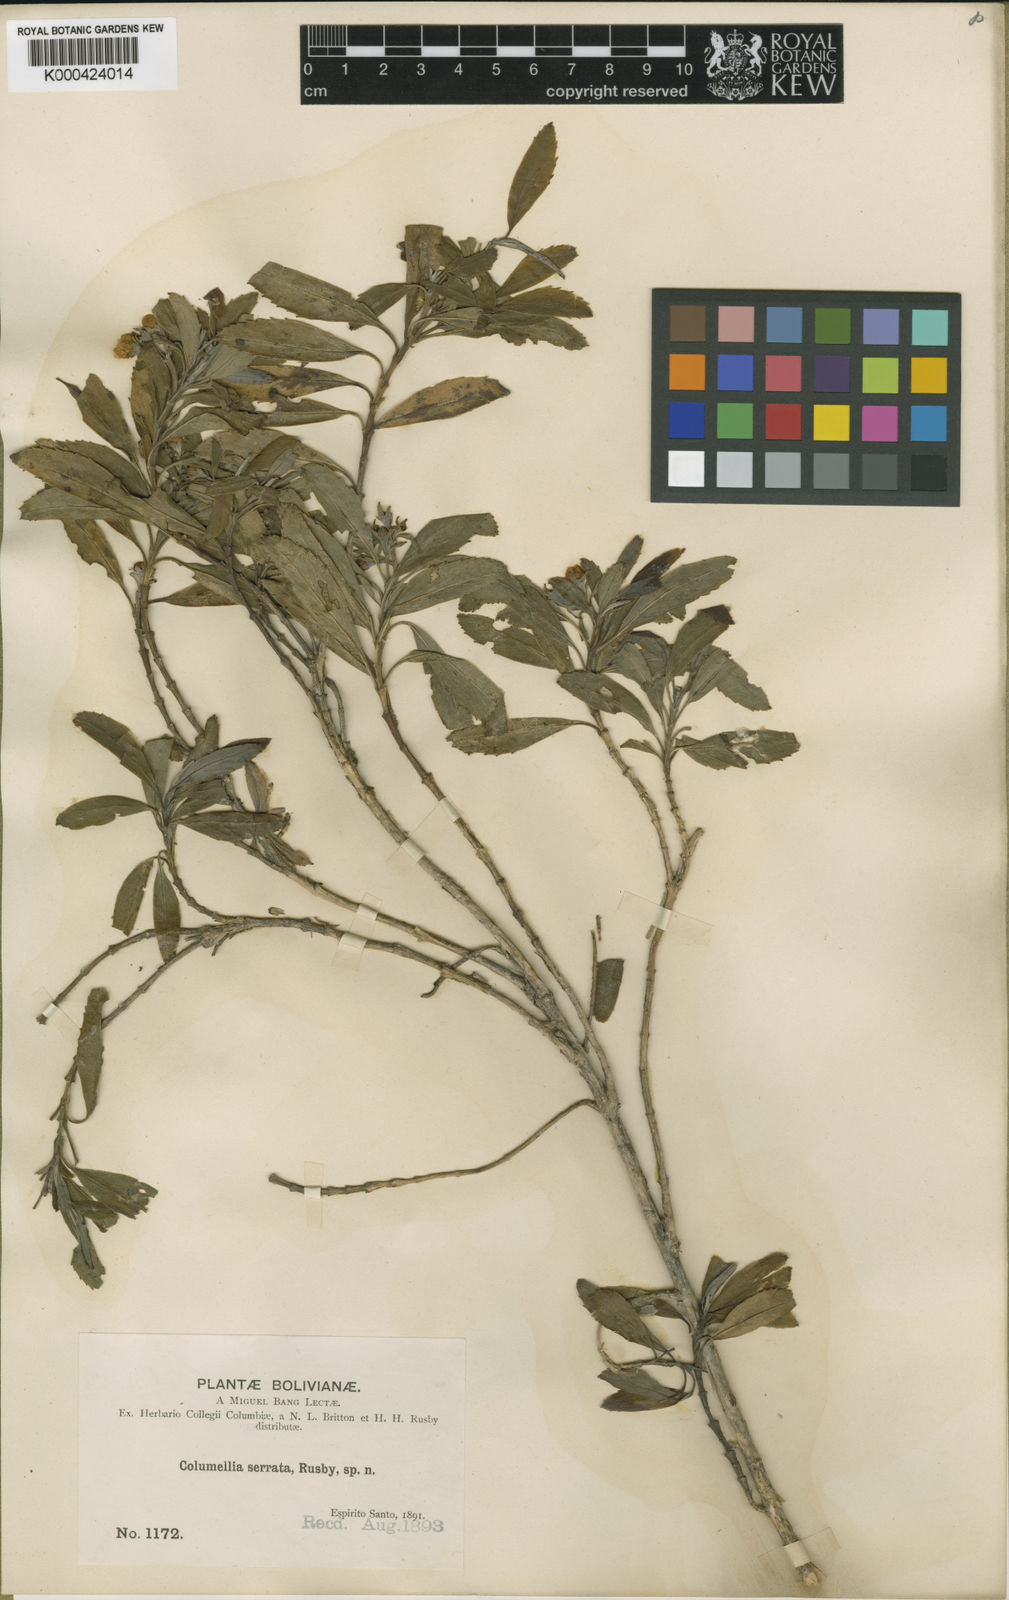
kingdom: Plantae
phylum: Tracheophyta
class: Magnoliopsida
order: Bruniales
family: Columelliaceae
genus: Columellia
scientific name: Columellia oblonga
